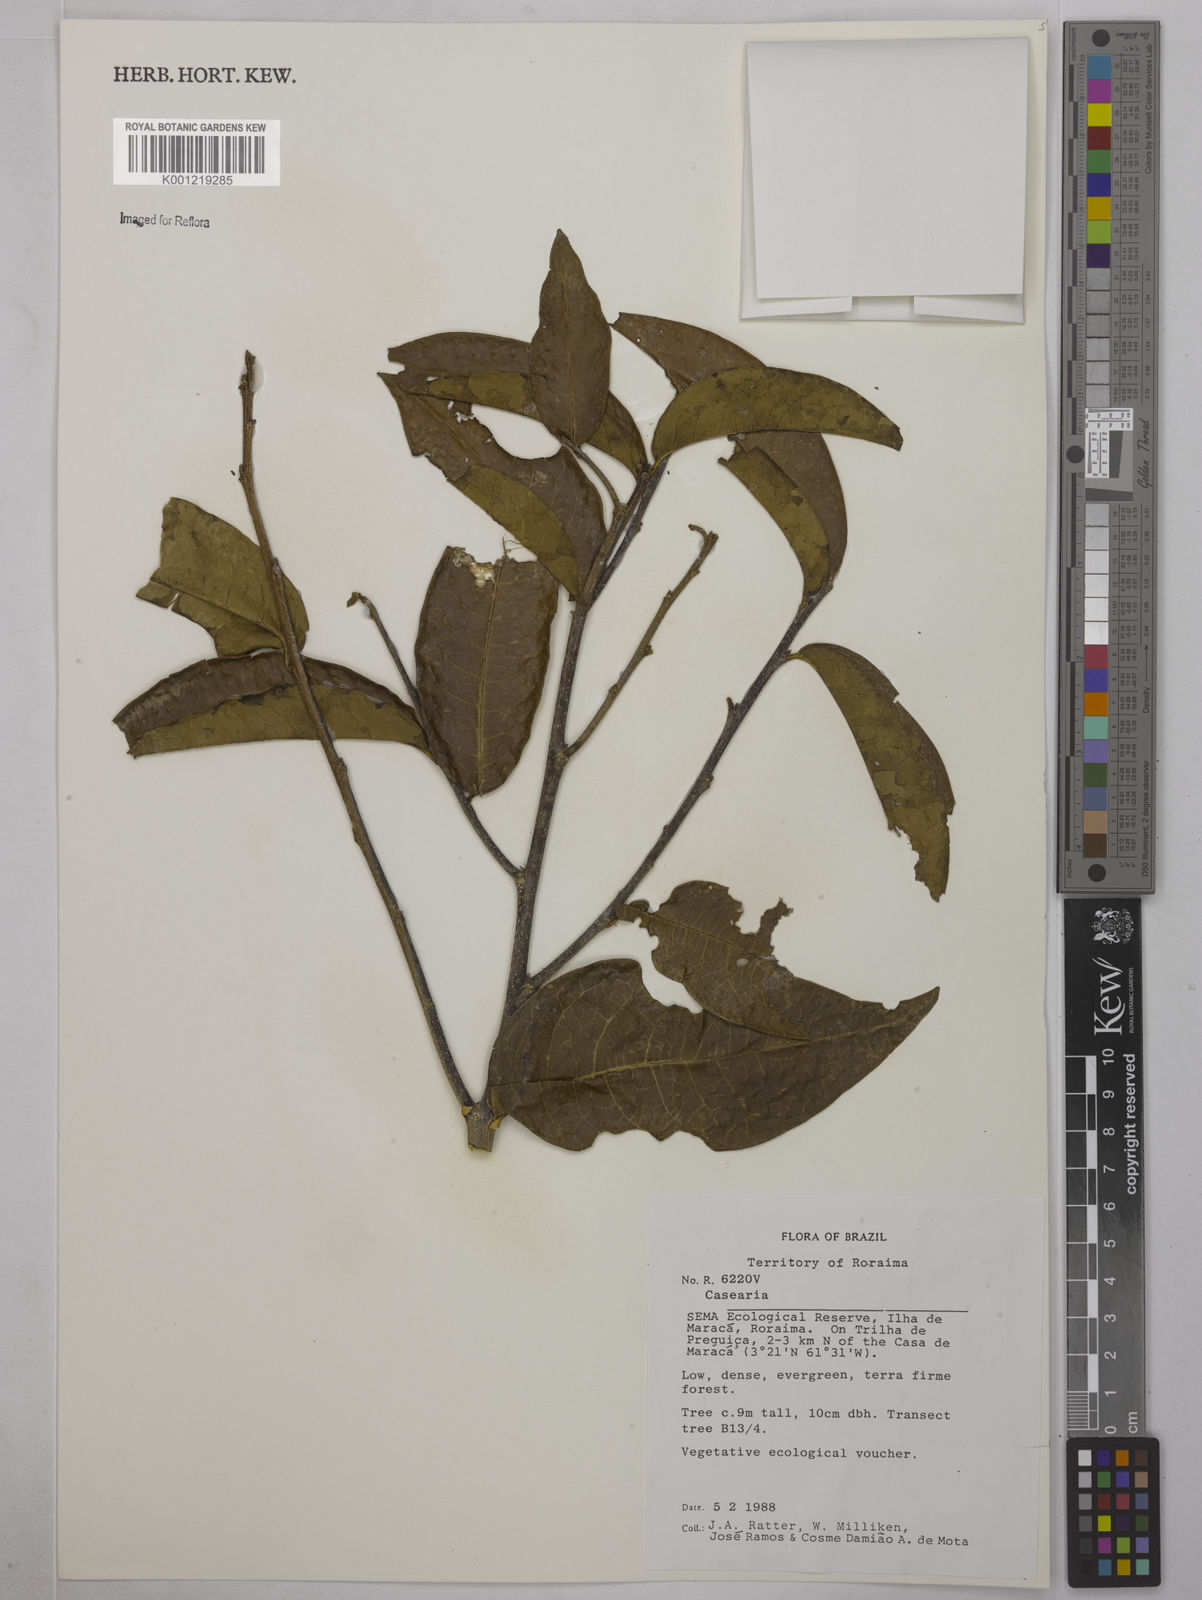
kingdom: Plantae
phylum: Tracheophyta
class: Magnoliopsida
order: Malpighiales
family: Salicaceae
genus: Casearia
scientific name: Casearia
